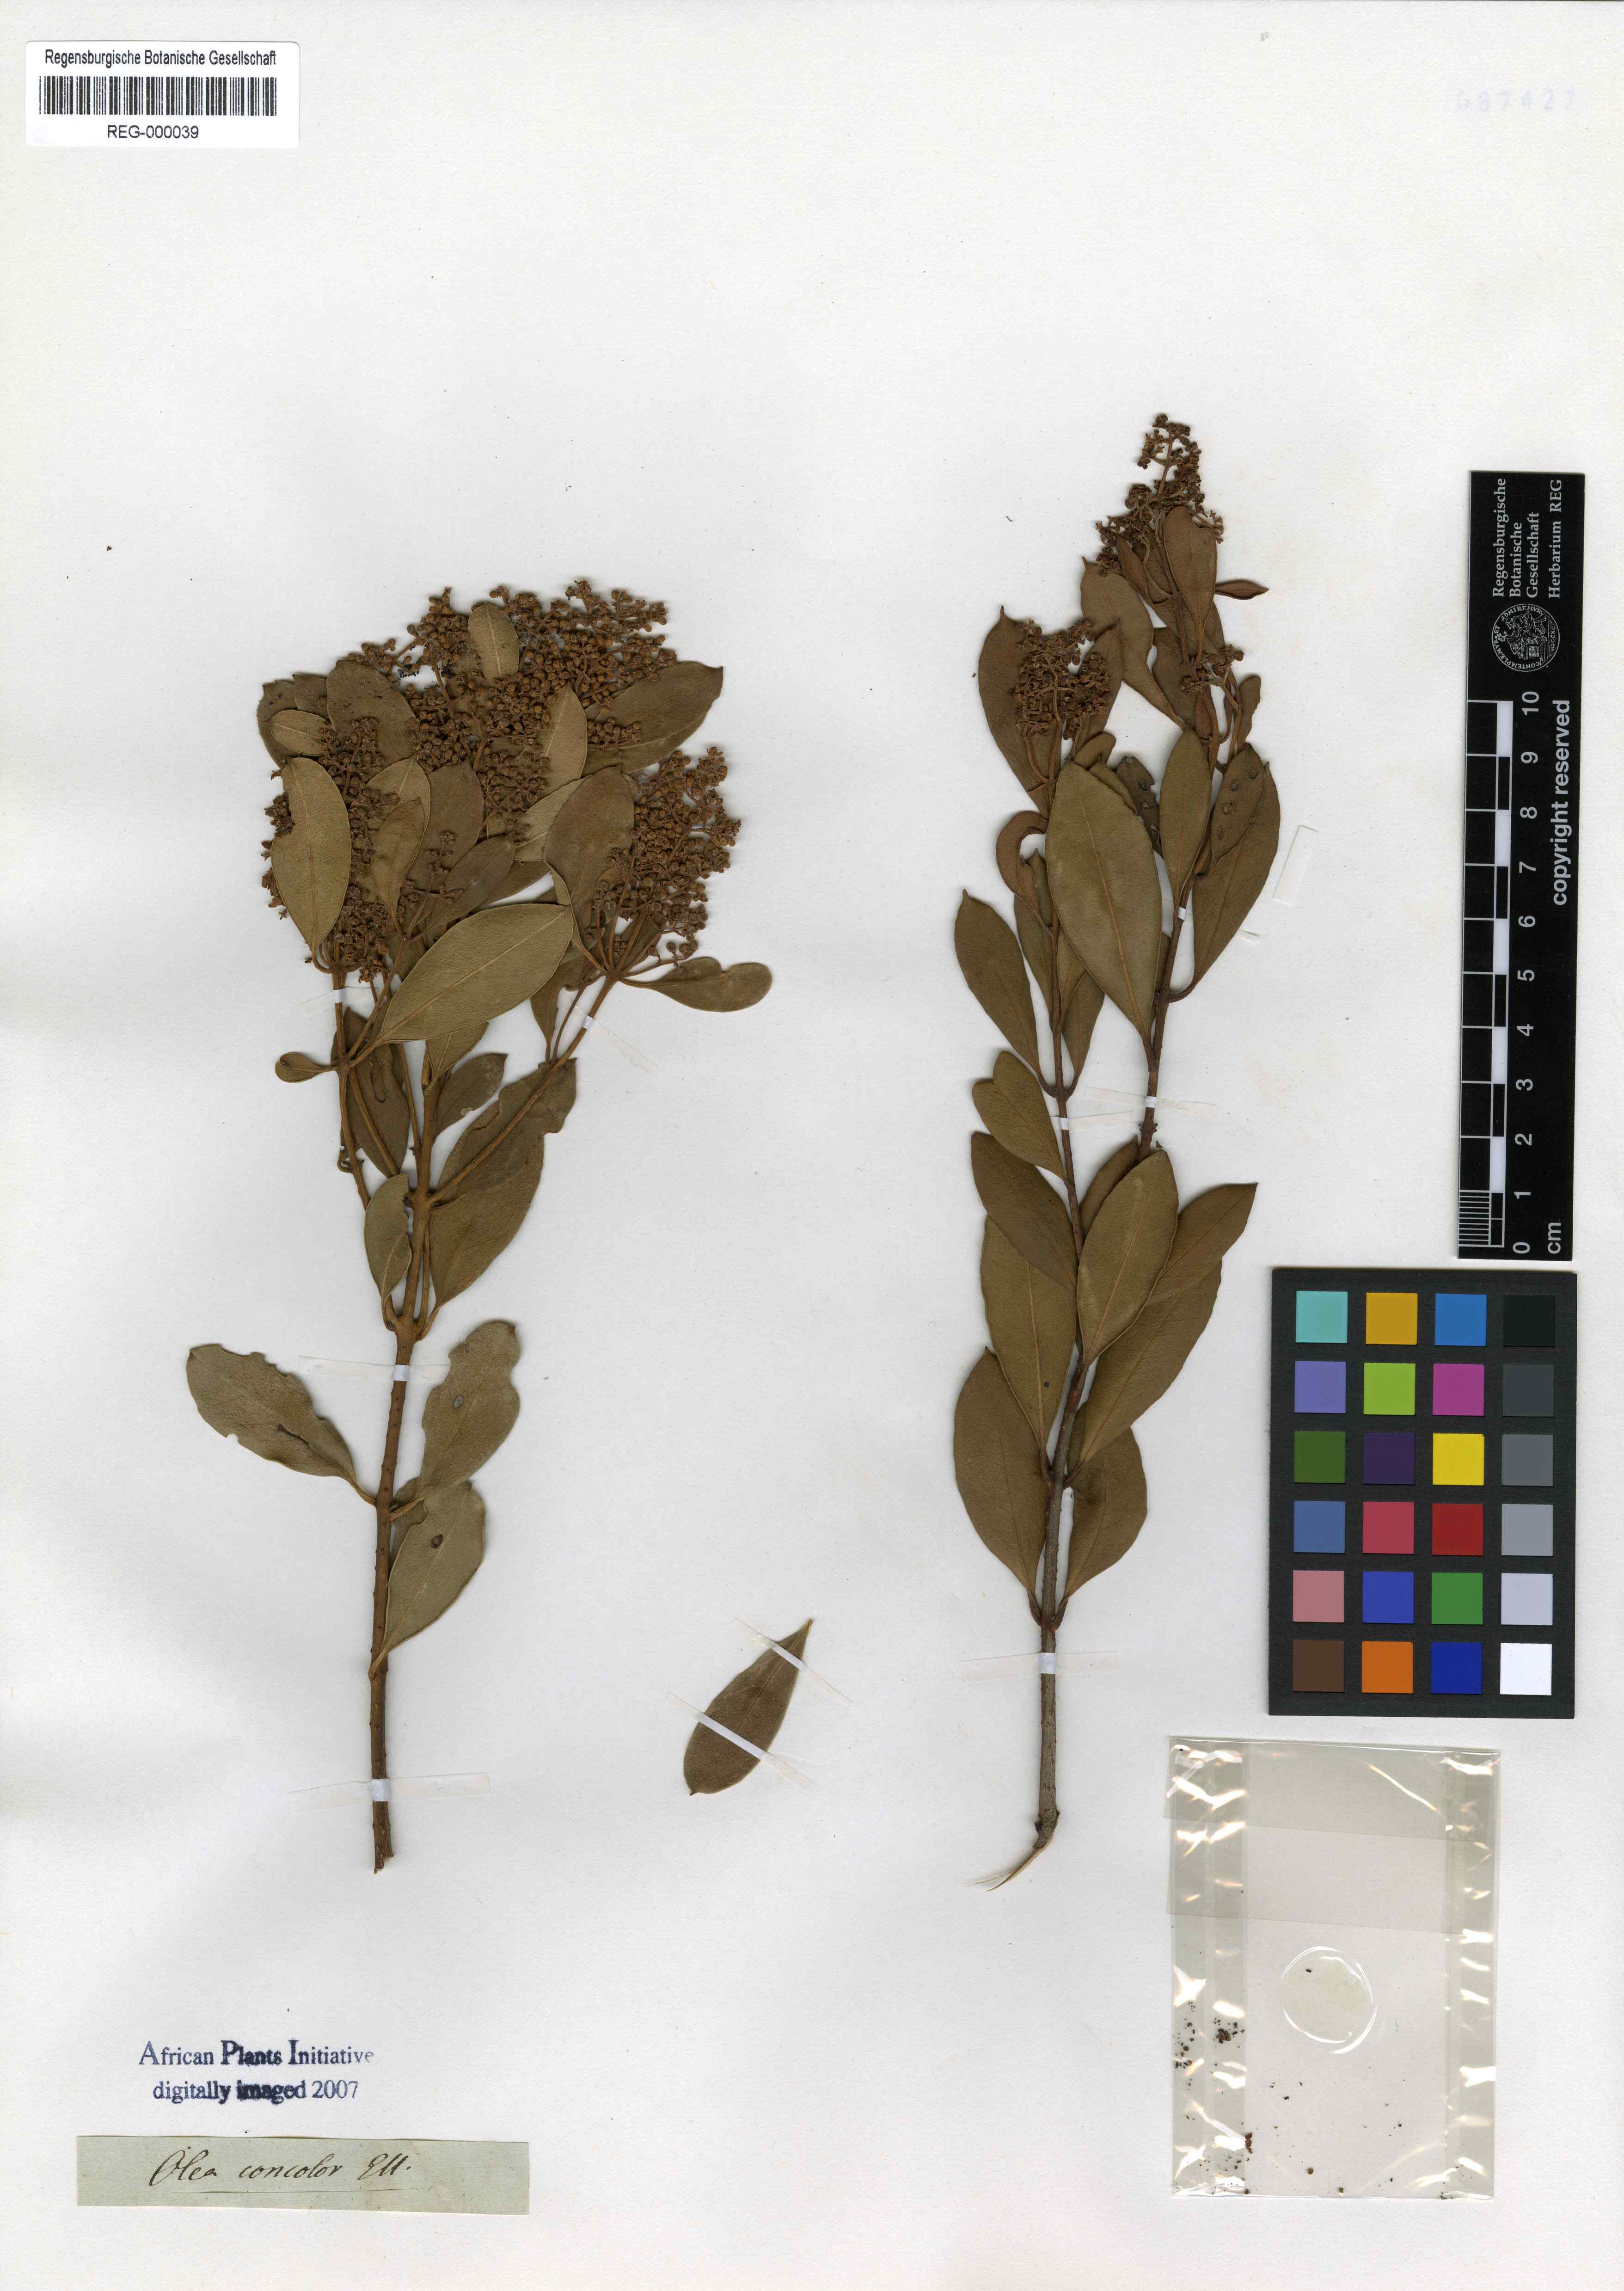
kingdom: Plantae
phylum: Tracheophyta
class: Magnoliopsida
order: Lamiales
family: Oleaceae
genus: Olea
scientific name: Olea capensis
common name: Black ironwood
